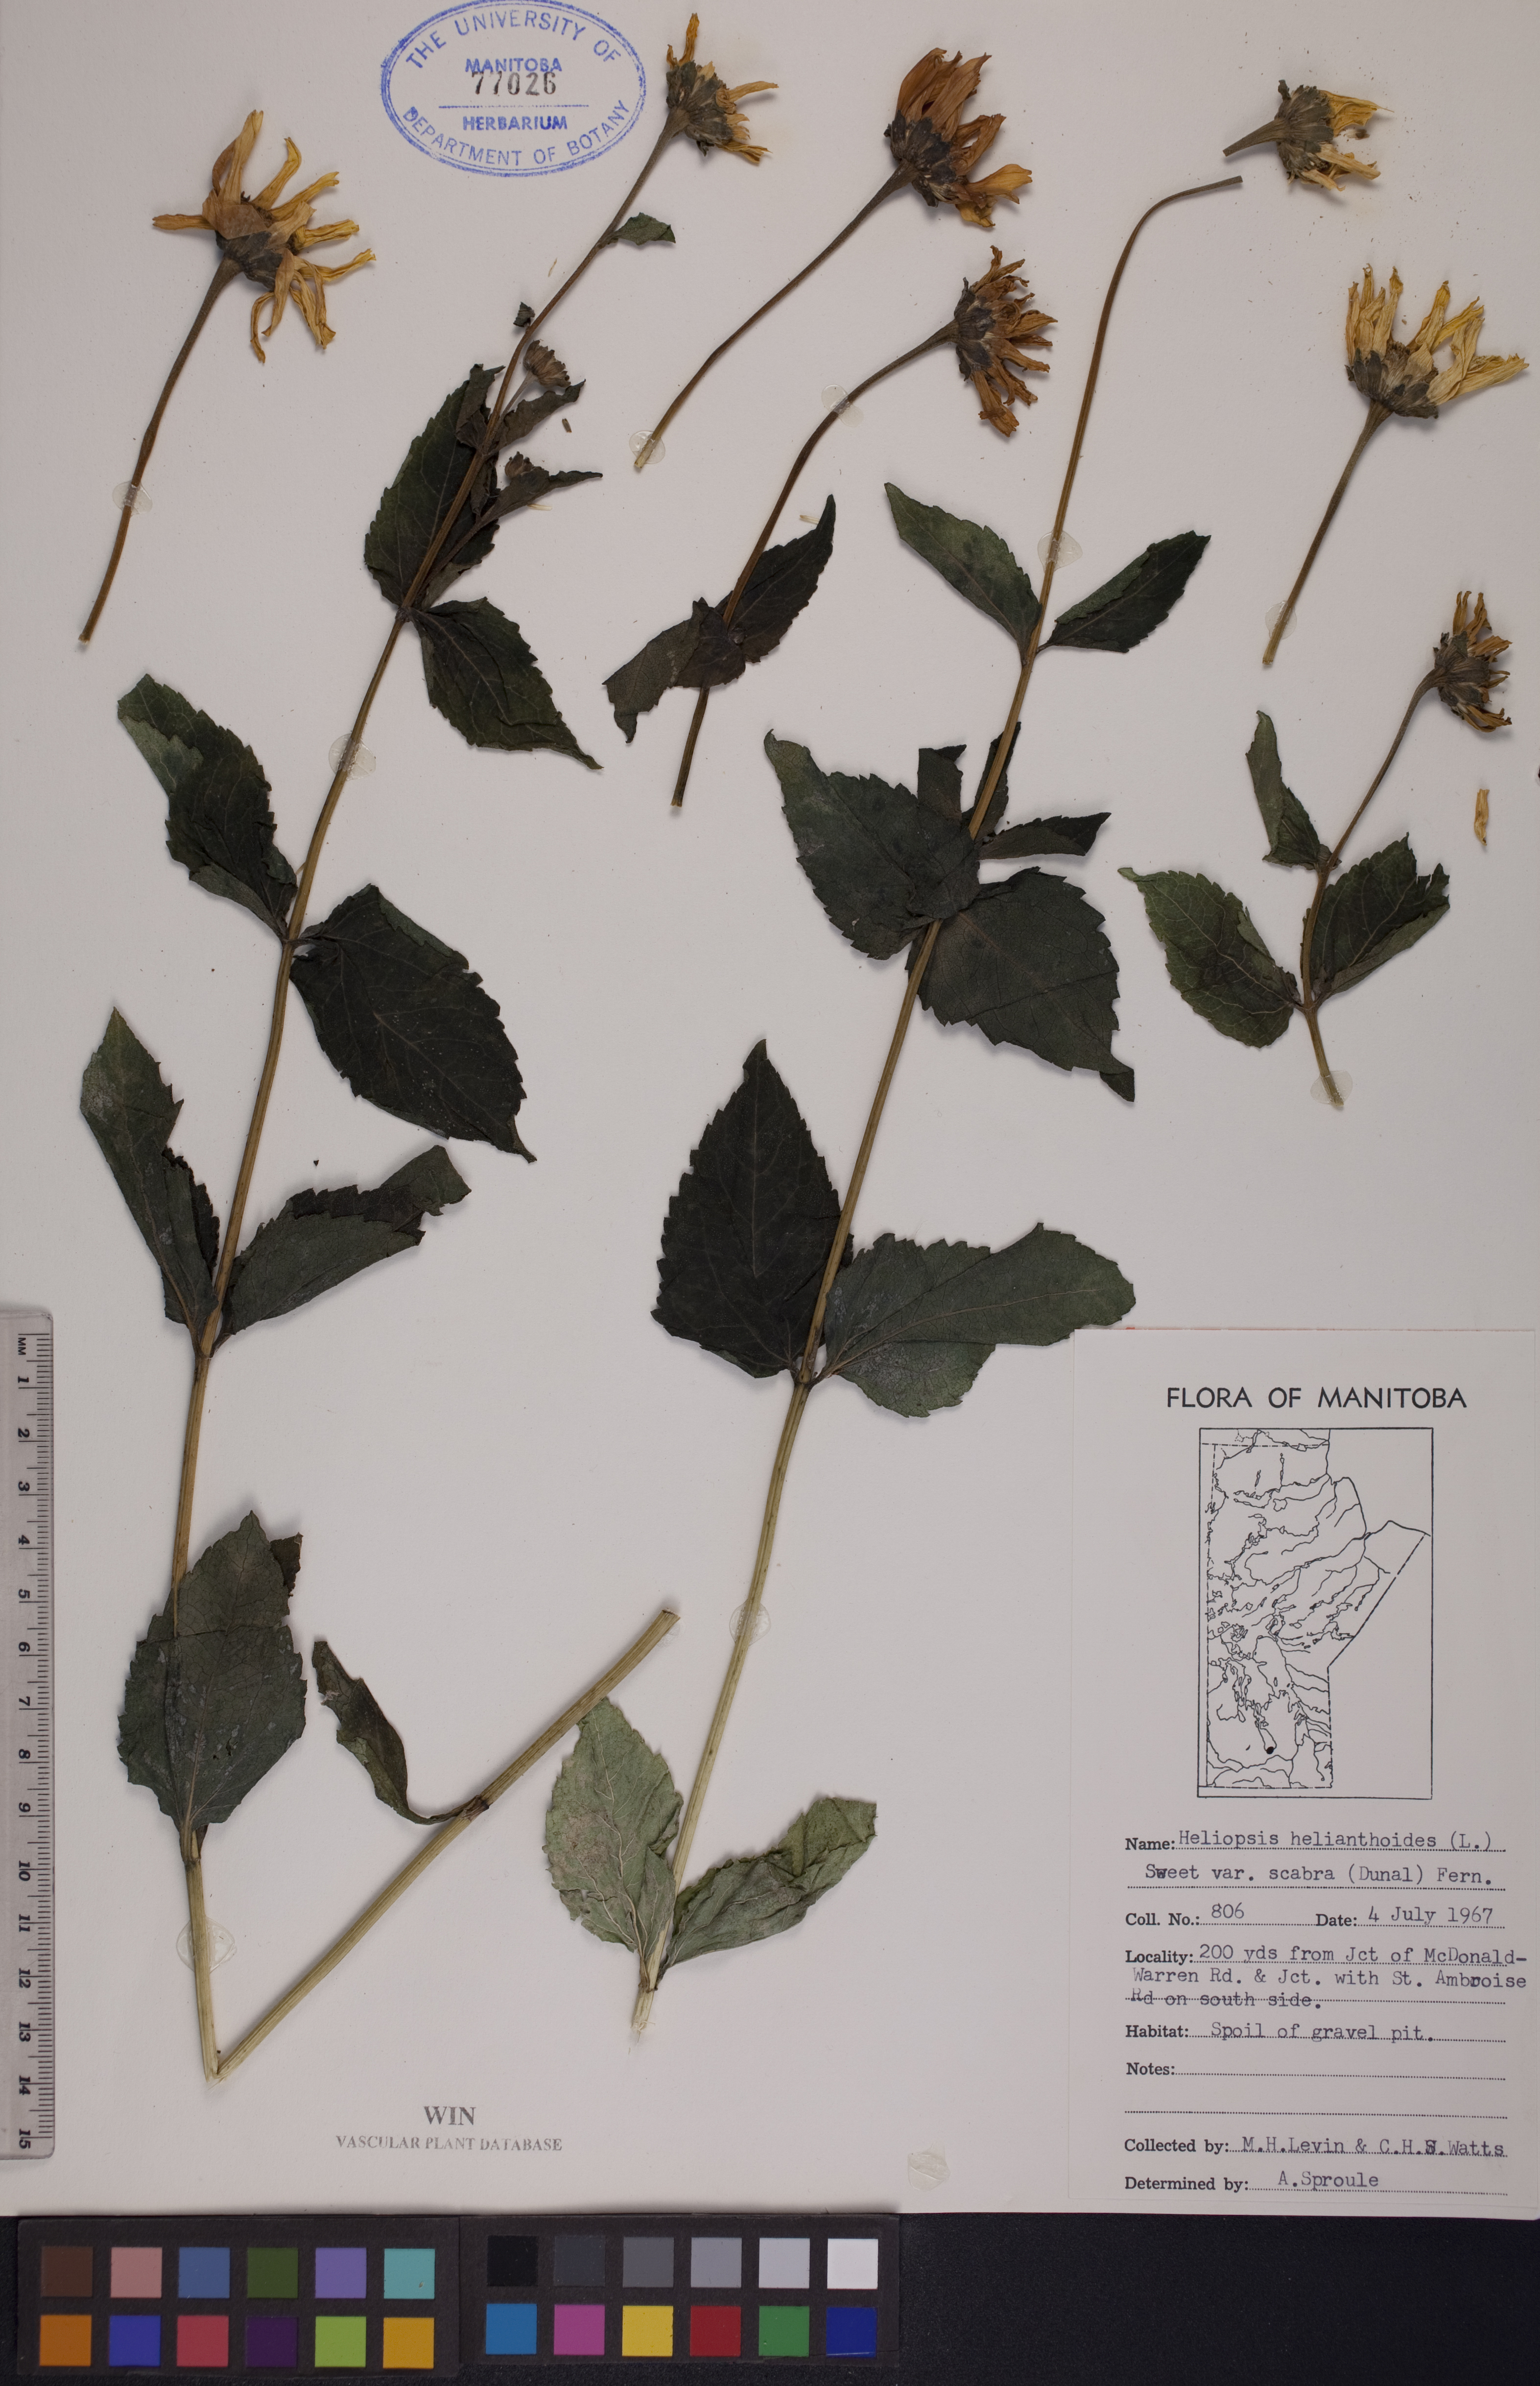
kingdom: Plantae
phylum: Tracheophyta
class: Magnoliopsida
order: Asterales
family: Asteraceae
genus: Heliopsis
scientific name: Heliopsis helianthoides
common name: False sunflower
